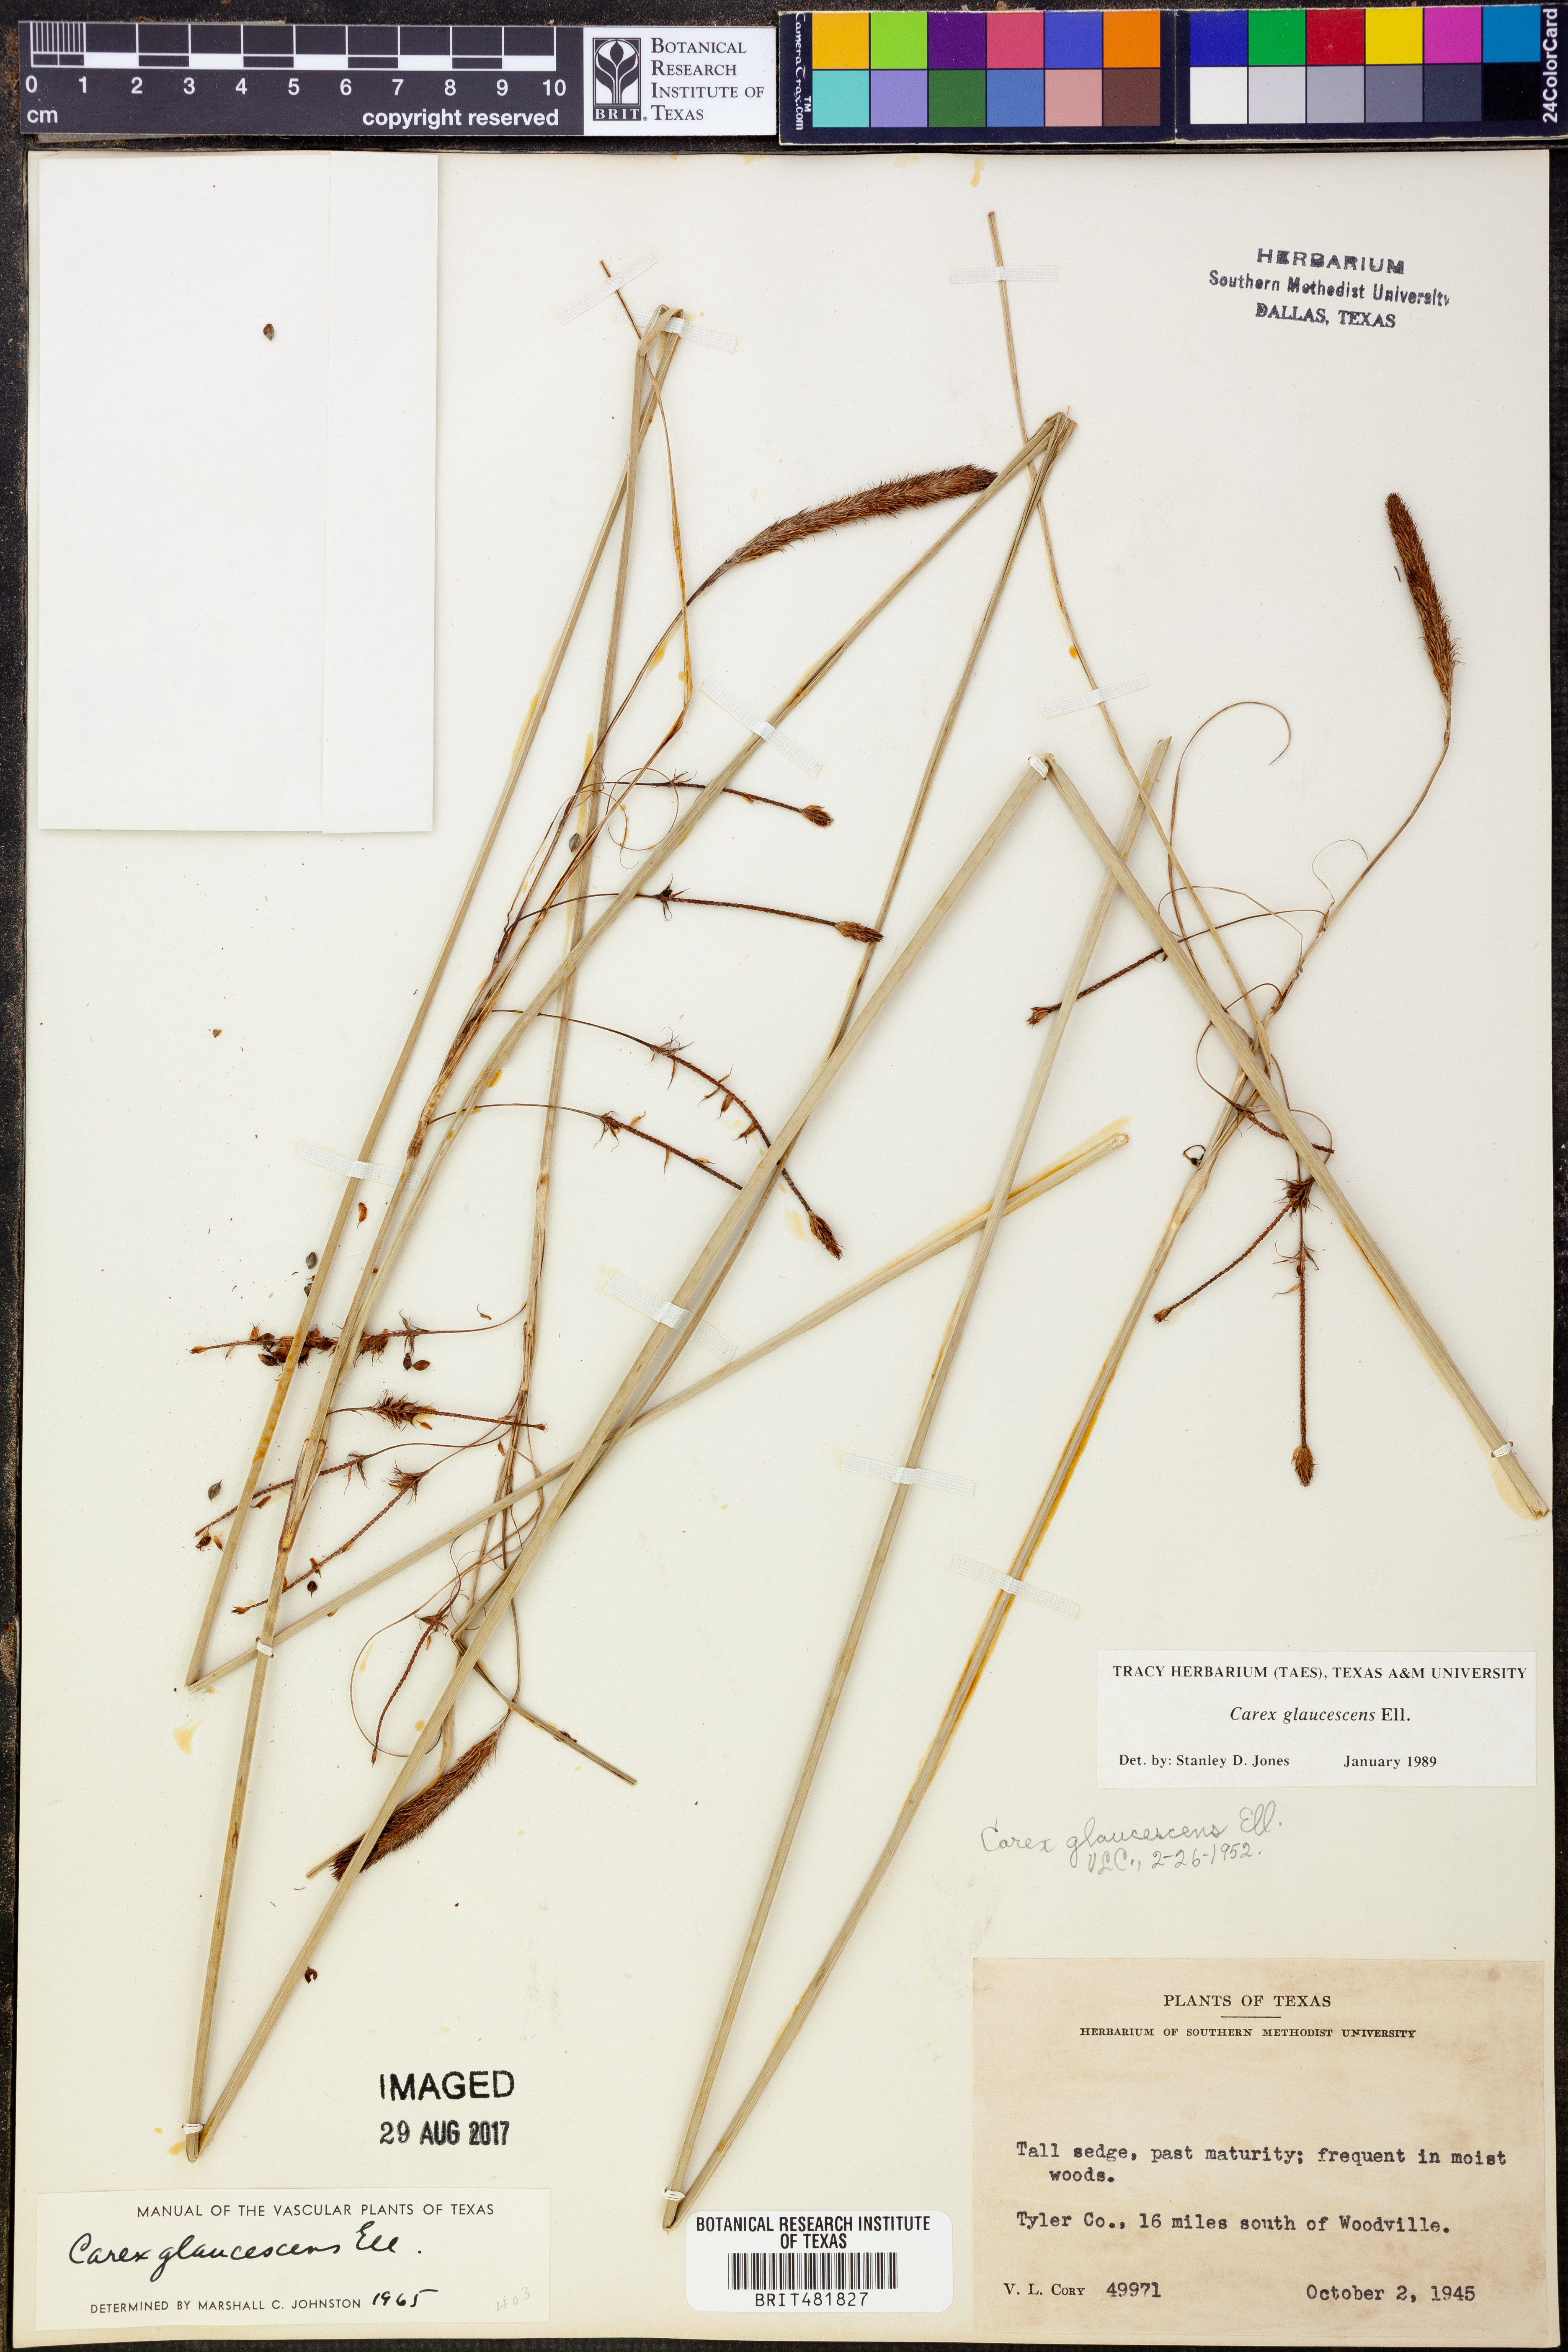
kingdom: Plantae
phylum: Tracheophyta
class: Liliopsida
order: Poales
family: Cyperaceae
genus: Carex
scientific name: Carex glaucescens
